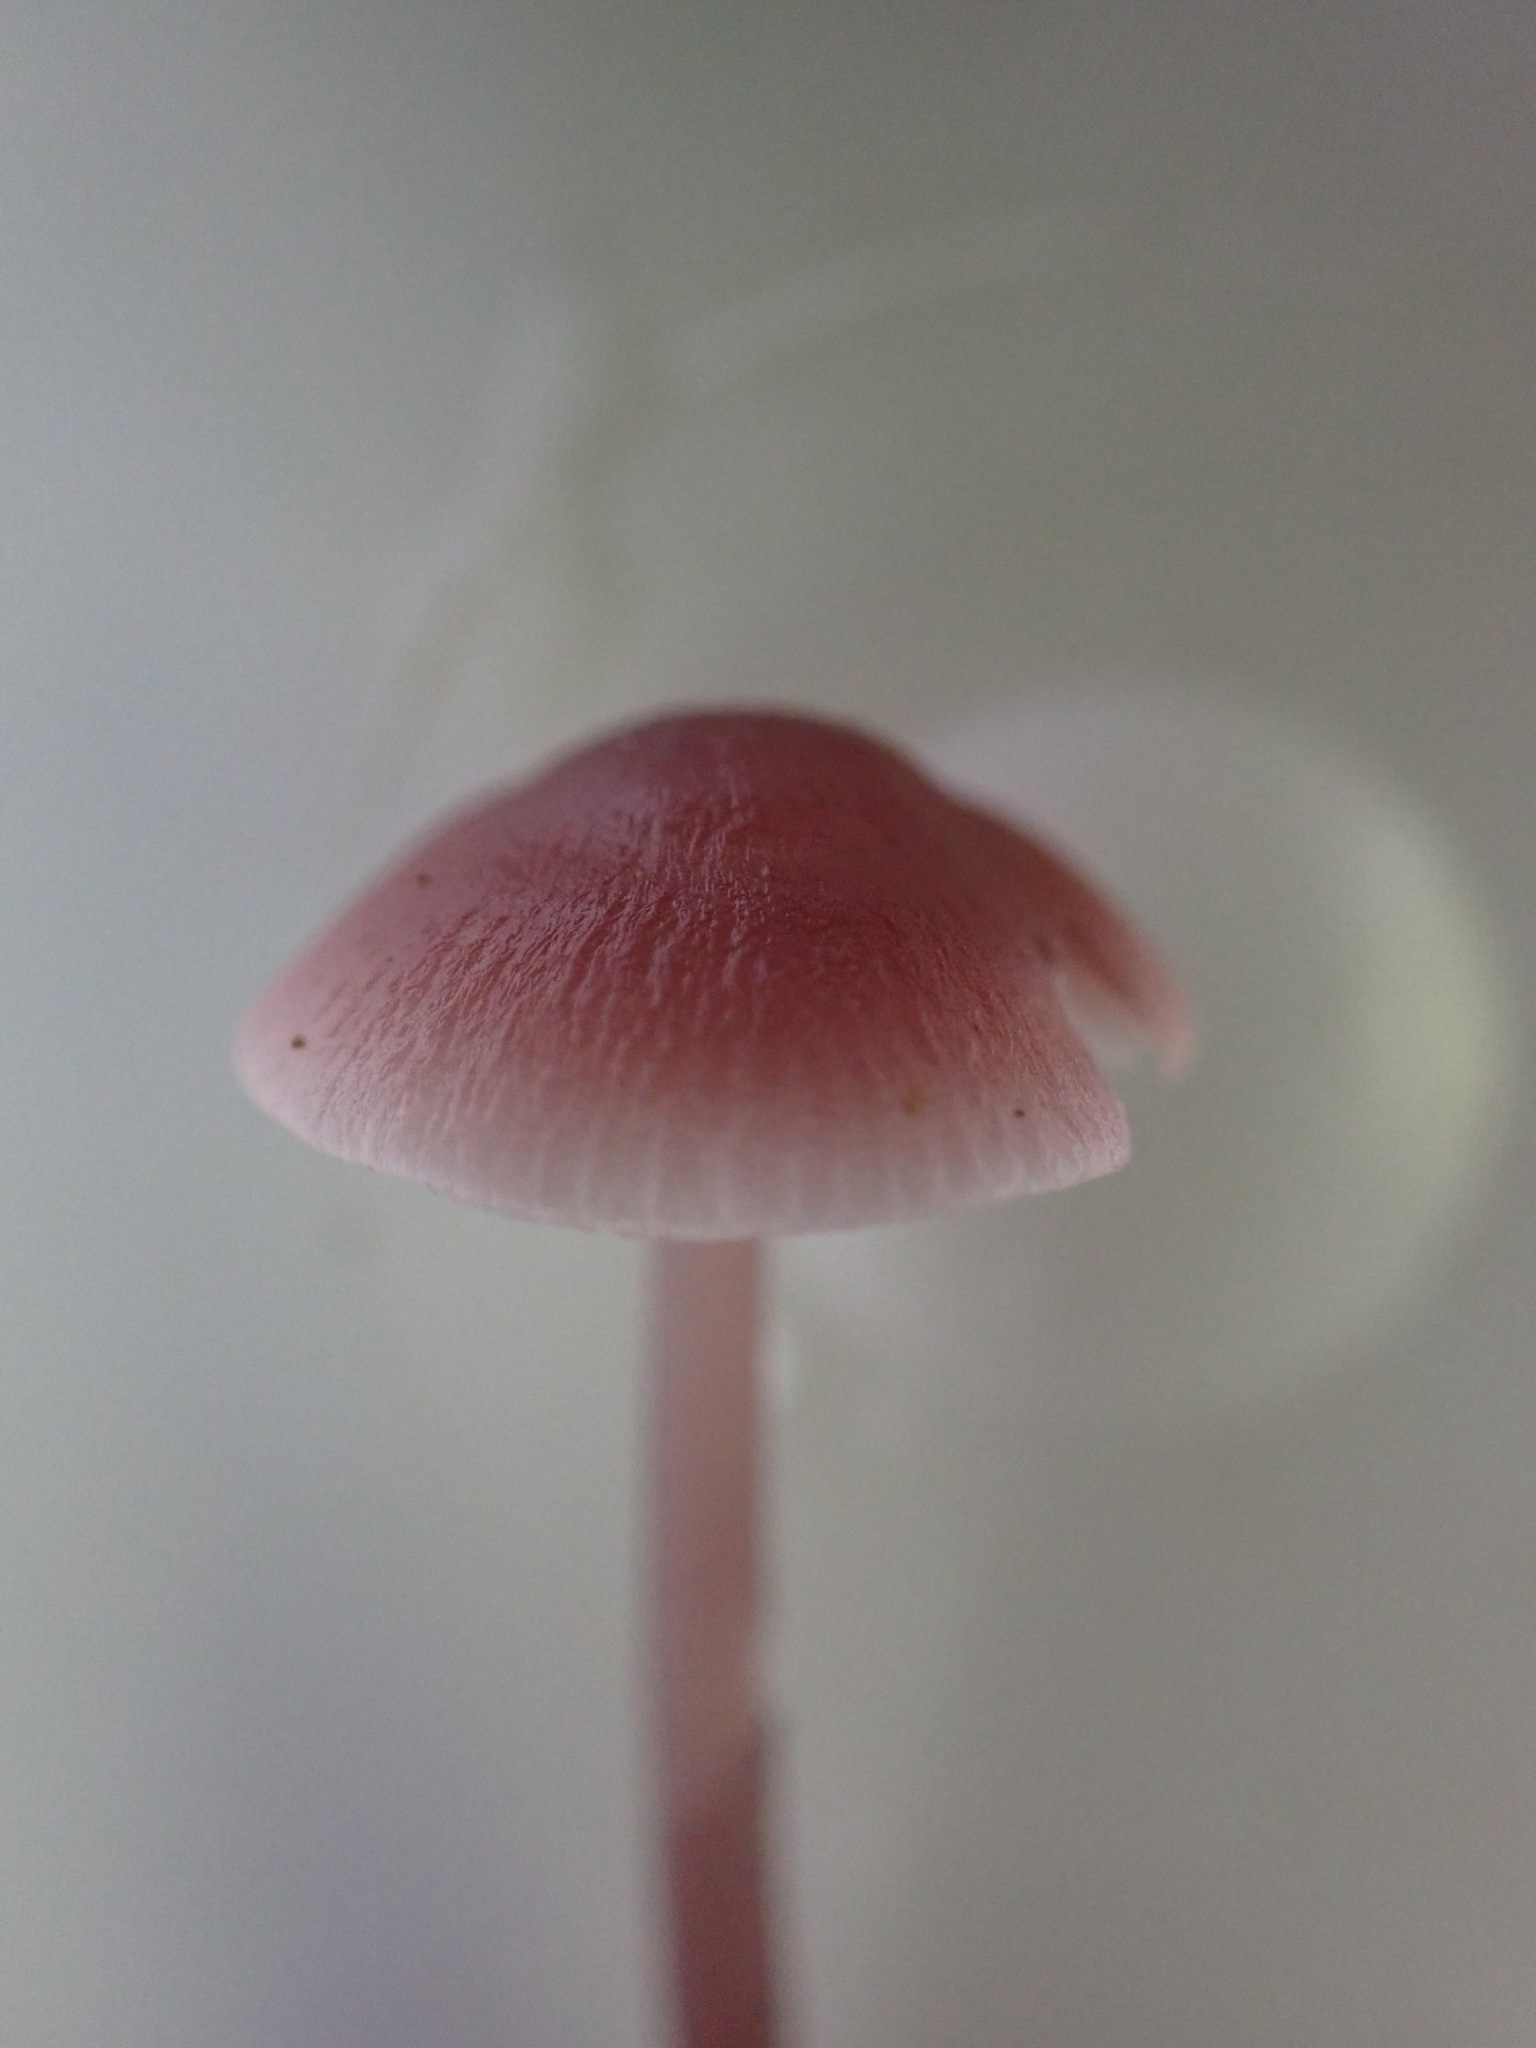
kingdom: Fungi
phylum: Basidiomycota
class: Agaricomycetes
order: Agaricales
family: Mycenaceae
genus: Mycena
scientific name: Mycena rosea
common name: rosa huesvamp
